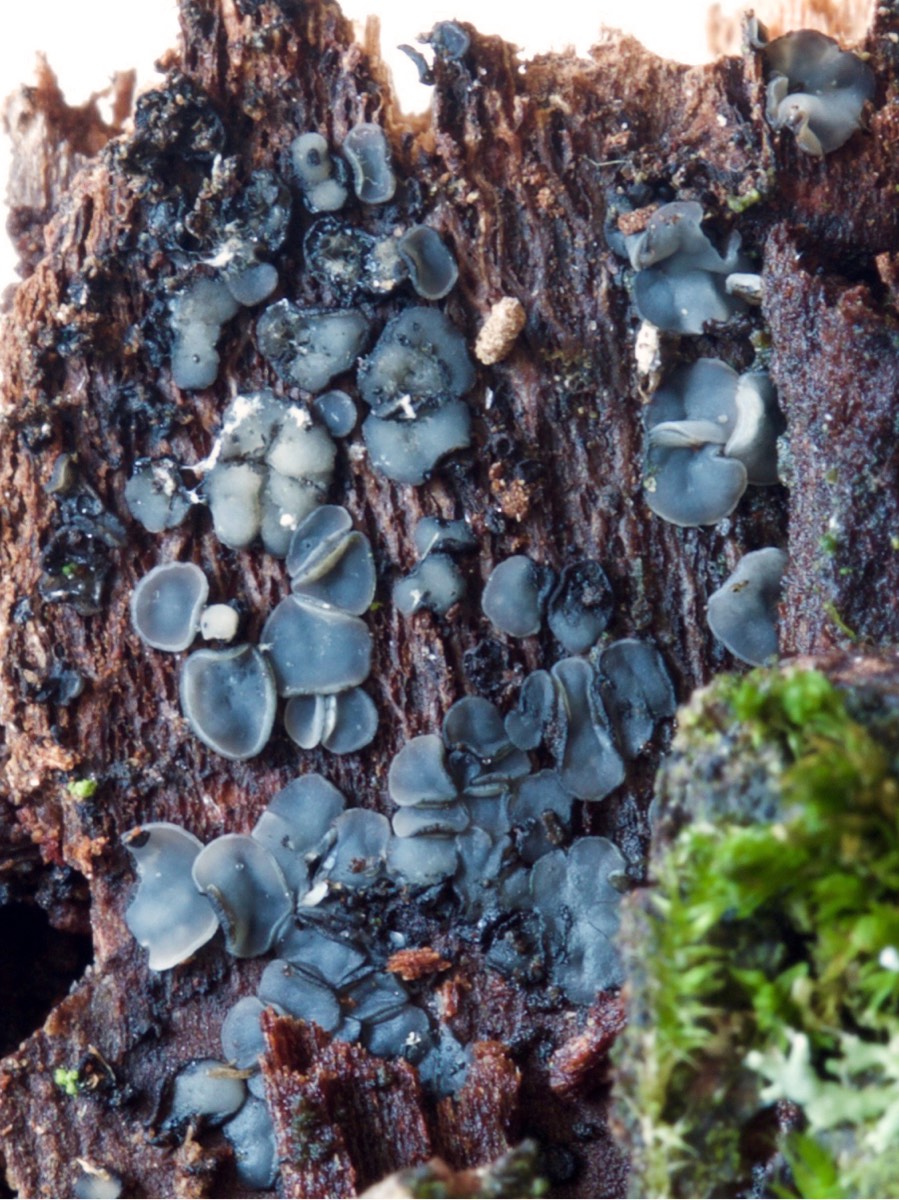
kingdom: Fungi
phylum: Ascomycota
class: Leotiomycetes
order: Helotiales
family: Mollisiaceae
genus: Mollisia
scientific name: Mollisia
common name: gråskive
